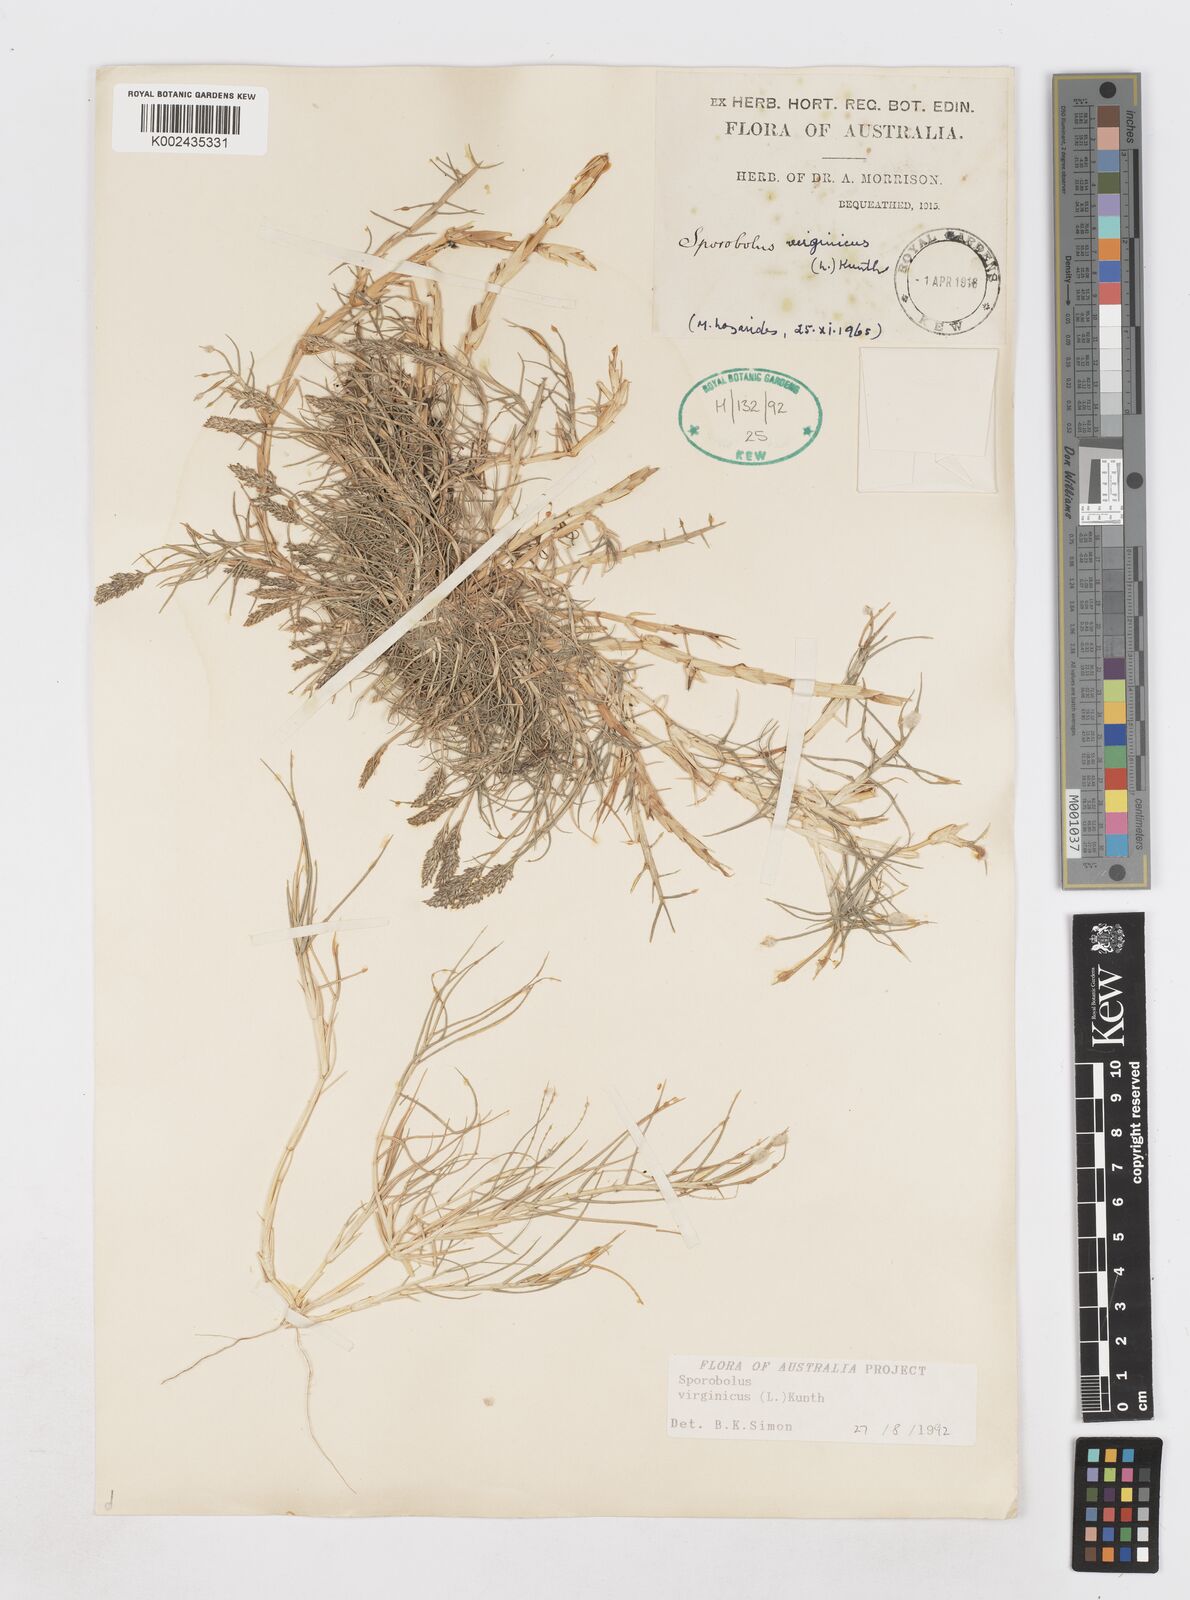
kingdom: Plantae
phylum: Tracheophyta
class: Liliopsida
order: Poales
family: Poaceae
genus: Sporobolus
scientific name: Sporobolus virginicus
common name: Beach dropseed
